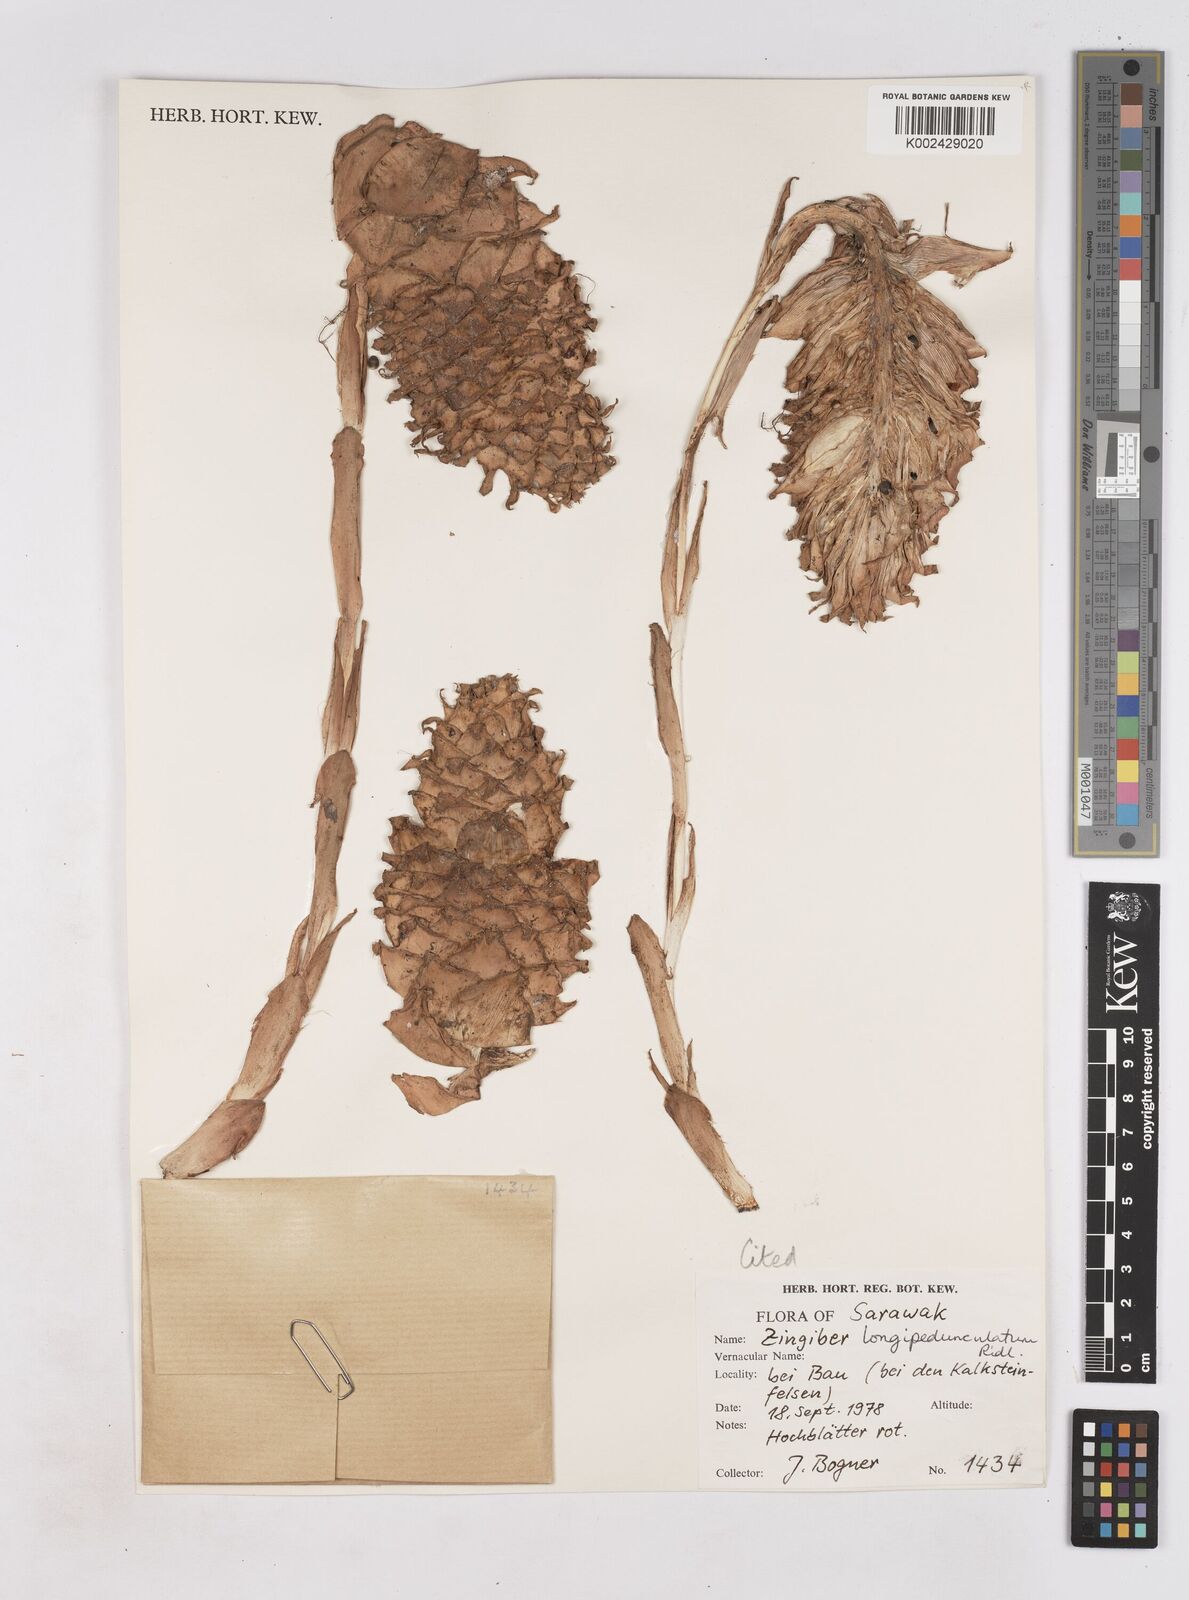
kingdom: Plantae
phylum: Tracheophyta
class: Liliopsida
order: Zingiberales
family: Zingiberaceae
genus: Zingiber
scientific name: Zingiber longipedunculatum
